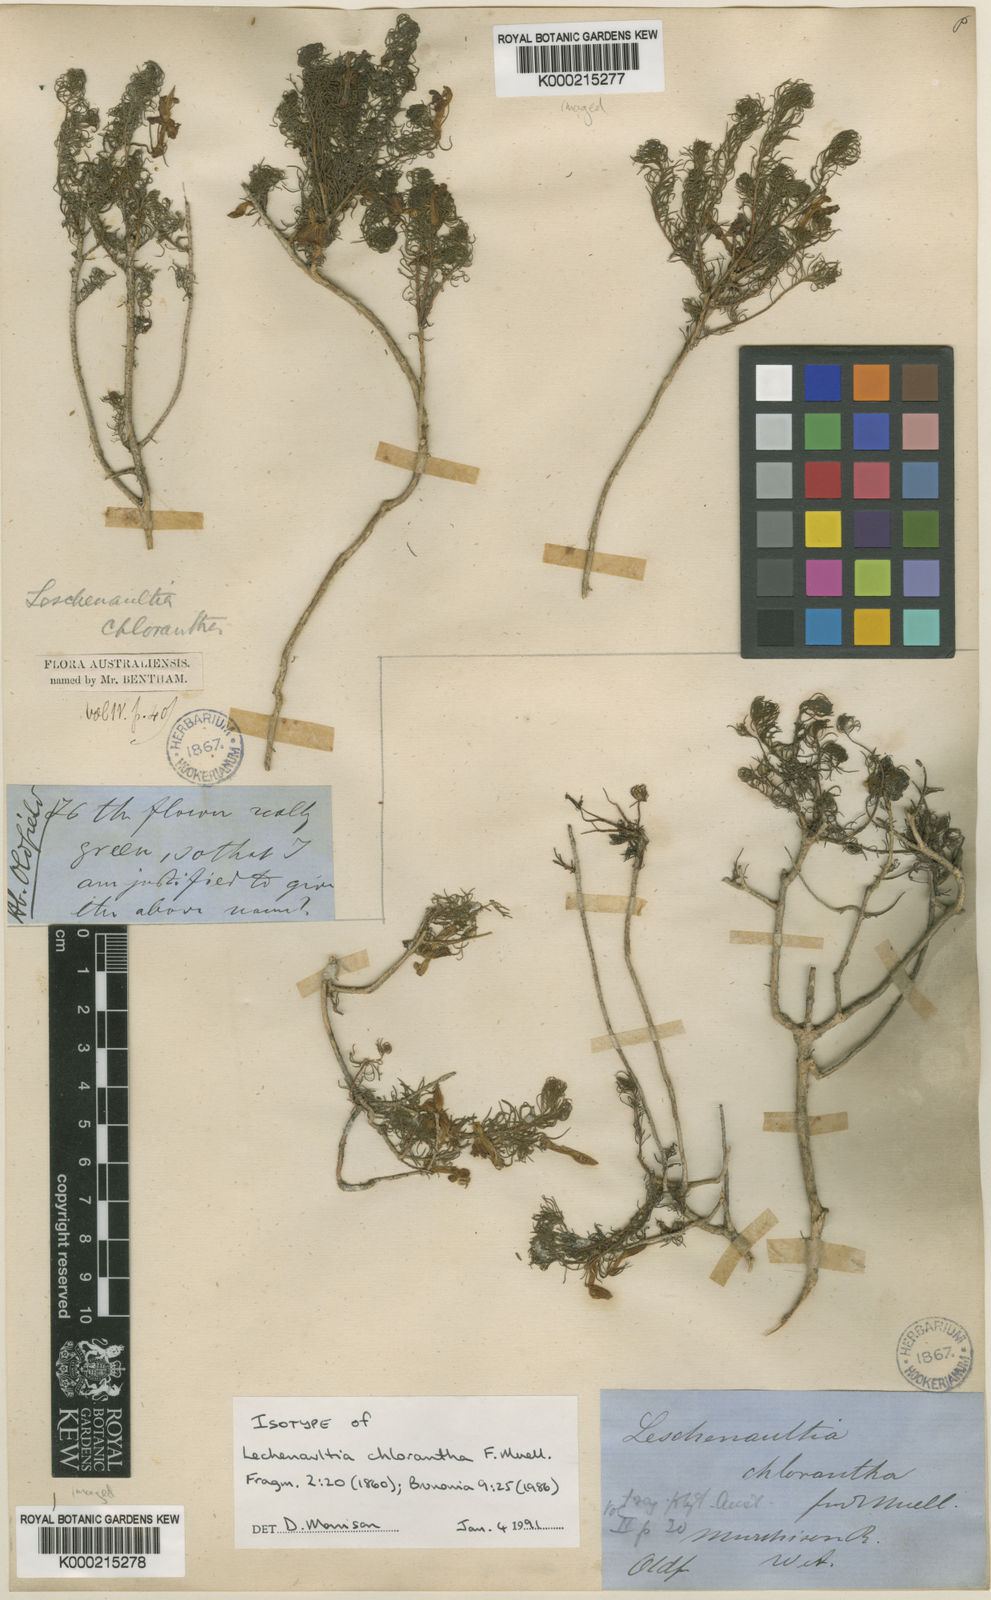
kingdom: Plantae
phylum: Tracheophyta
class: Magnoliopsida
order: Asterales
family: Goodeniaceae
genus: Leschenaultia
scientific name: Leschenaultia chlorantha
